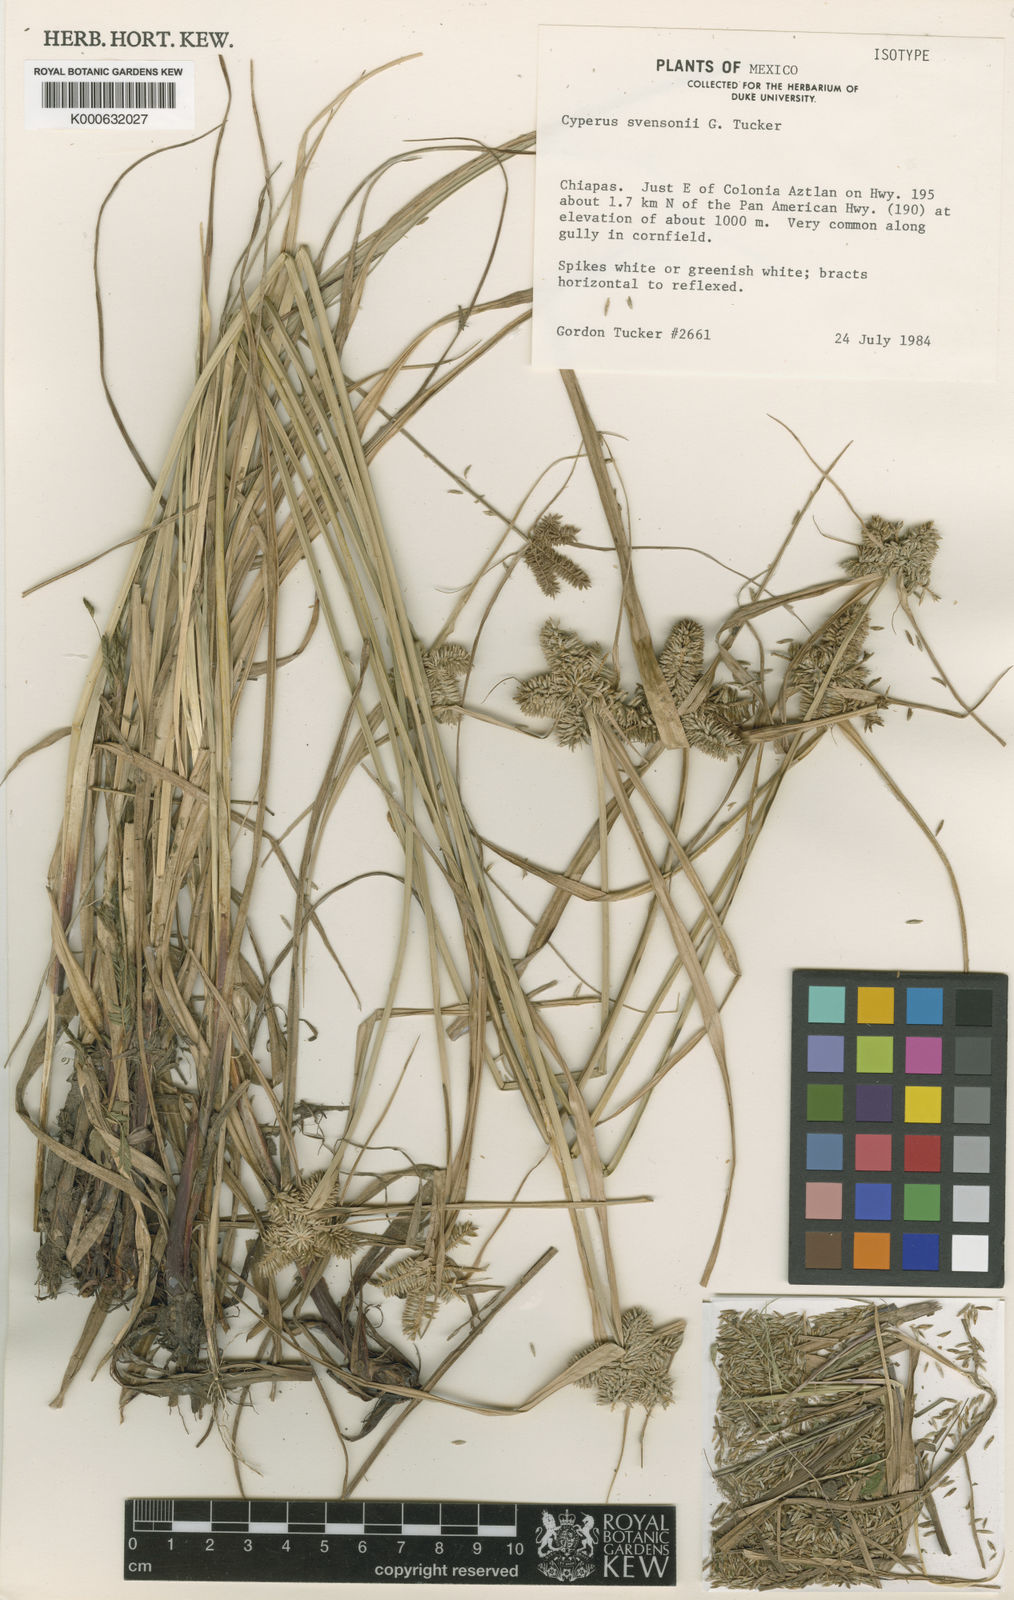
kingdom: Plantae
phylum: Tracheophyta
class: Liliopsida
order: Poales
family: Cyperaceae
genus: Cyperus
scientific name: Cyperus svensonii
